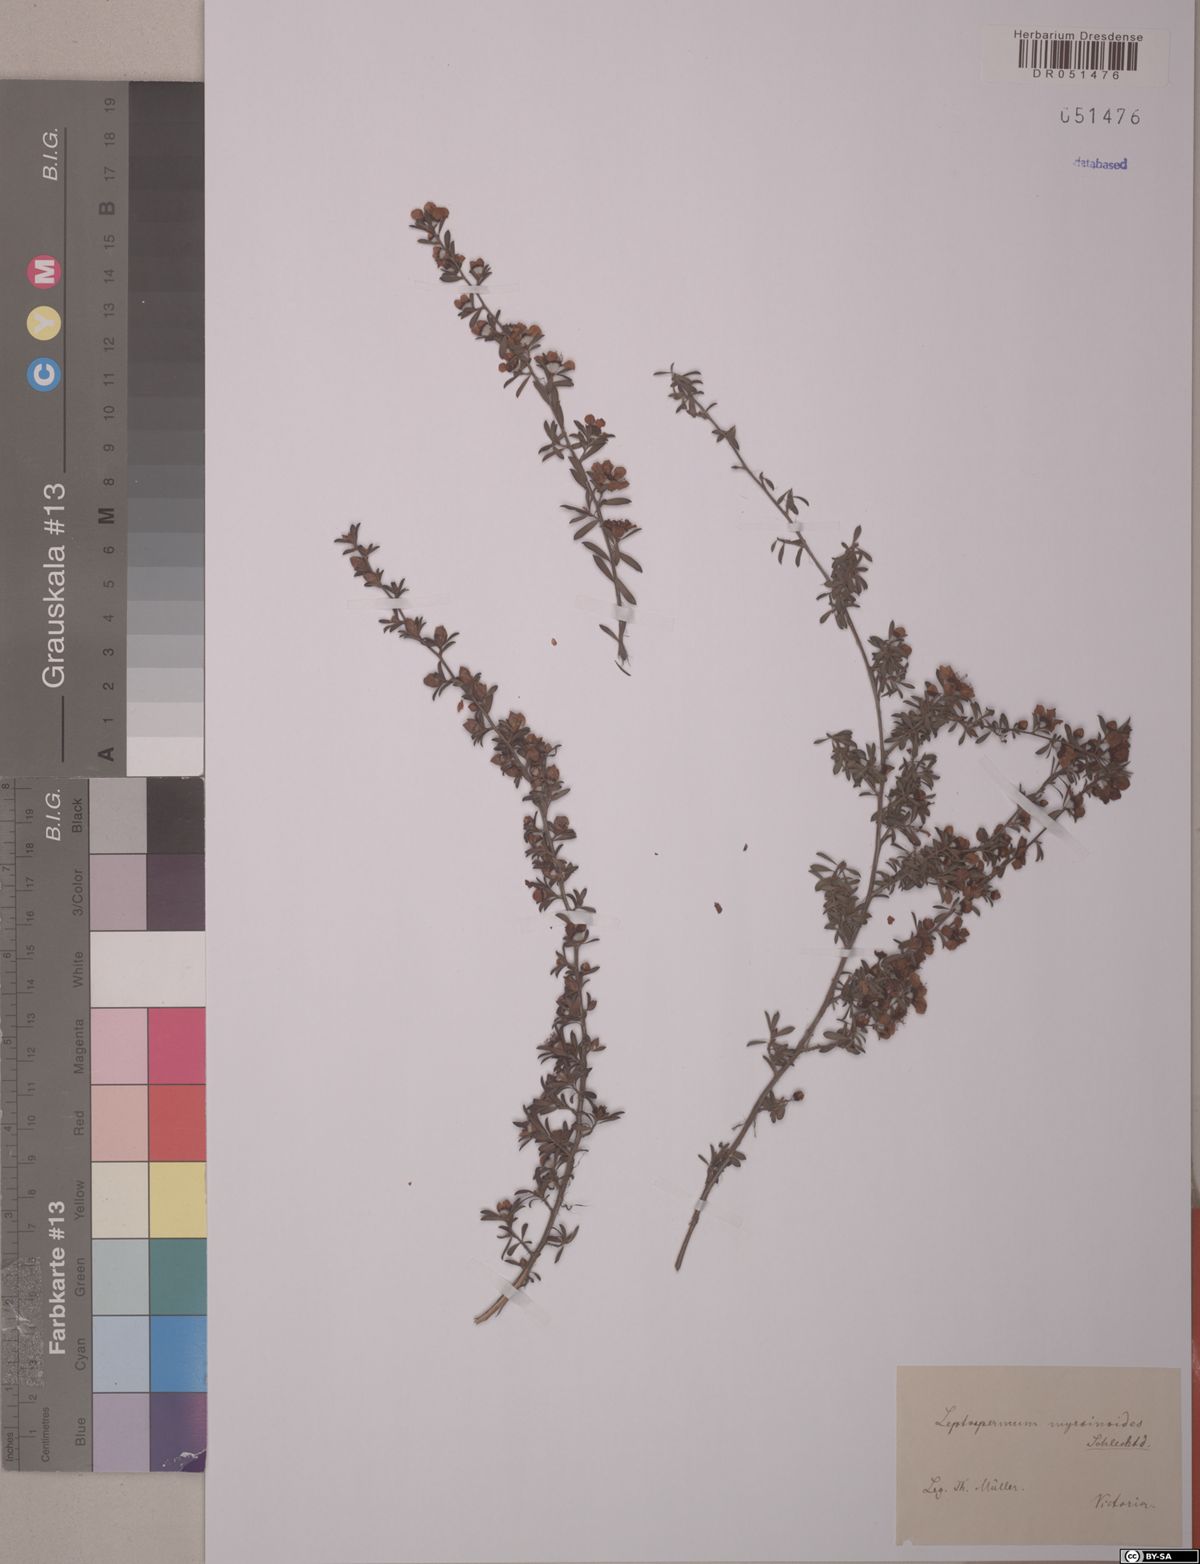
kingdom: Plantae
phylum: Tracheophyta
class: Magnoliopsida
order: Myrtales
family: Myrtaceae
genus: Leptospermum
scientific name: Leptospermum myrsinoides
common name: Heath teatree
